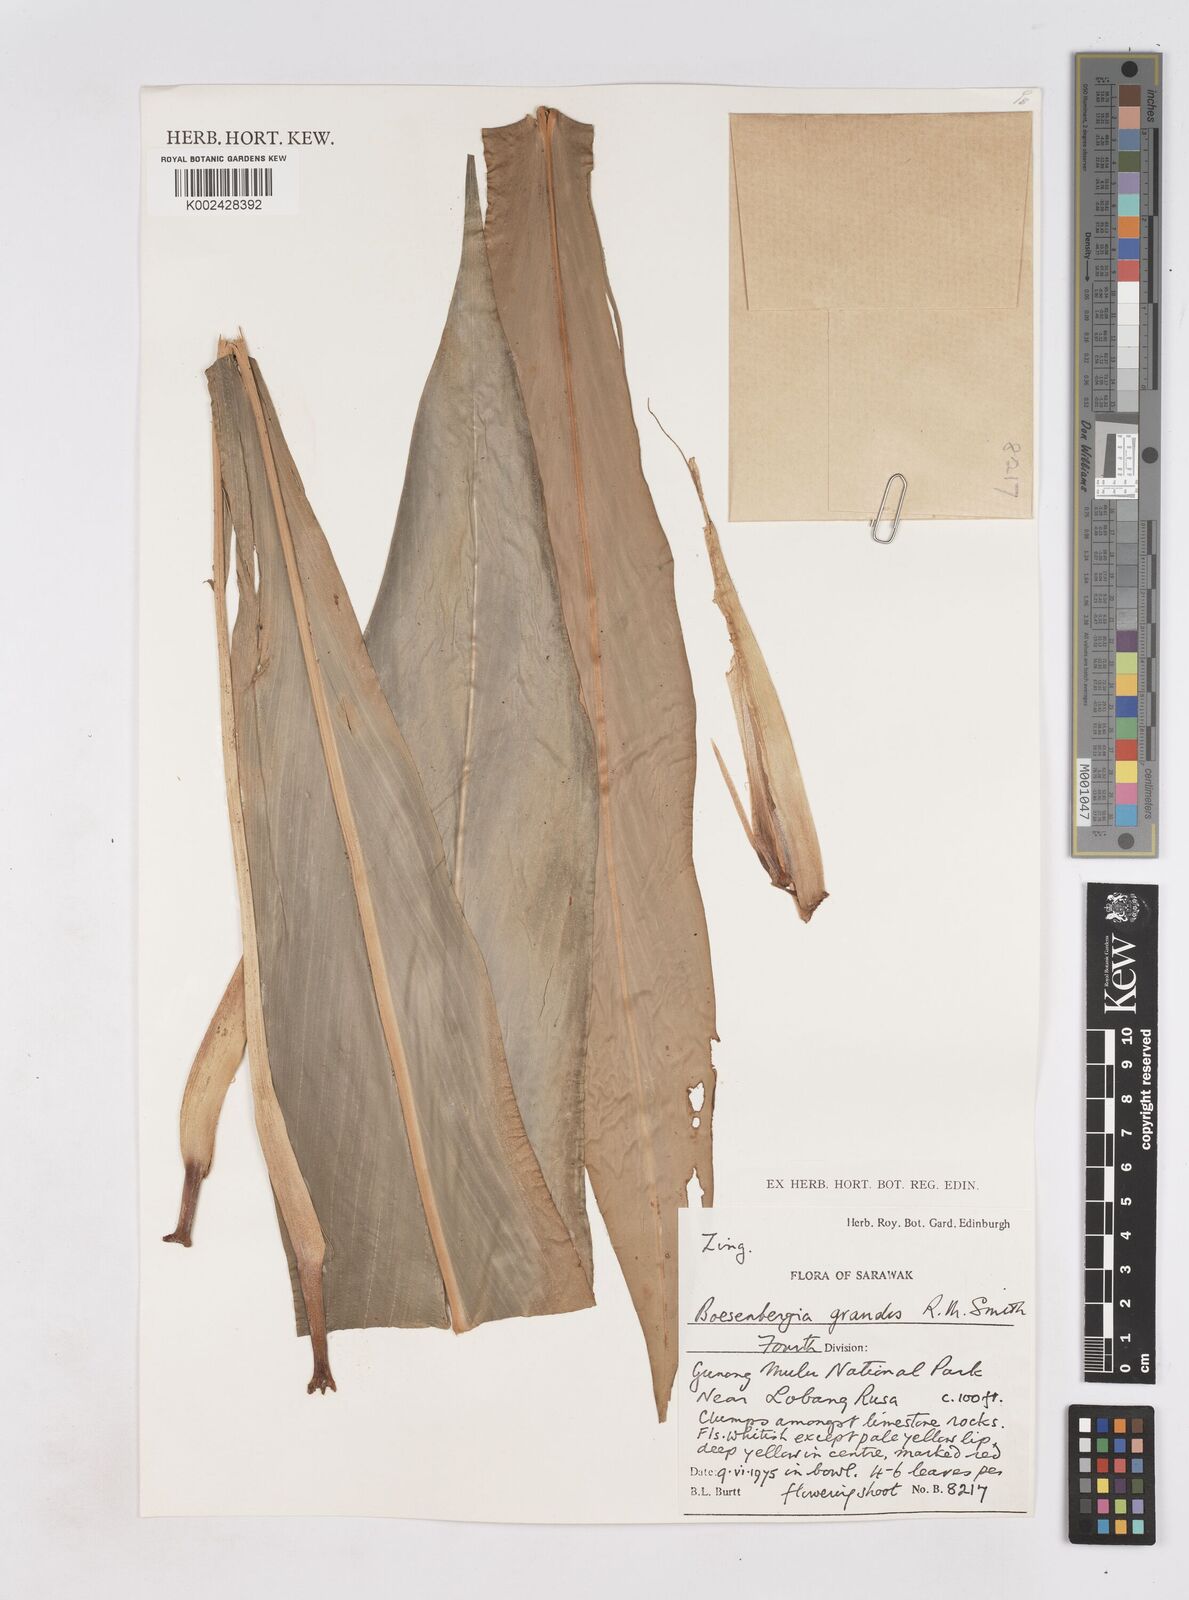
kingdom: Plantae
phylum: Tracheophyta
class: Liliopsida
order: Zingiberales
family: Zingiberaceae
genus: Boesenbergia
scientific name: Boesenbergia grandis
